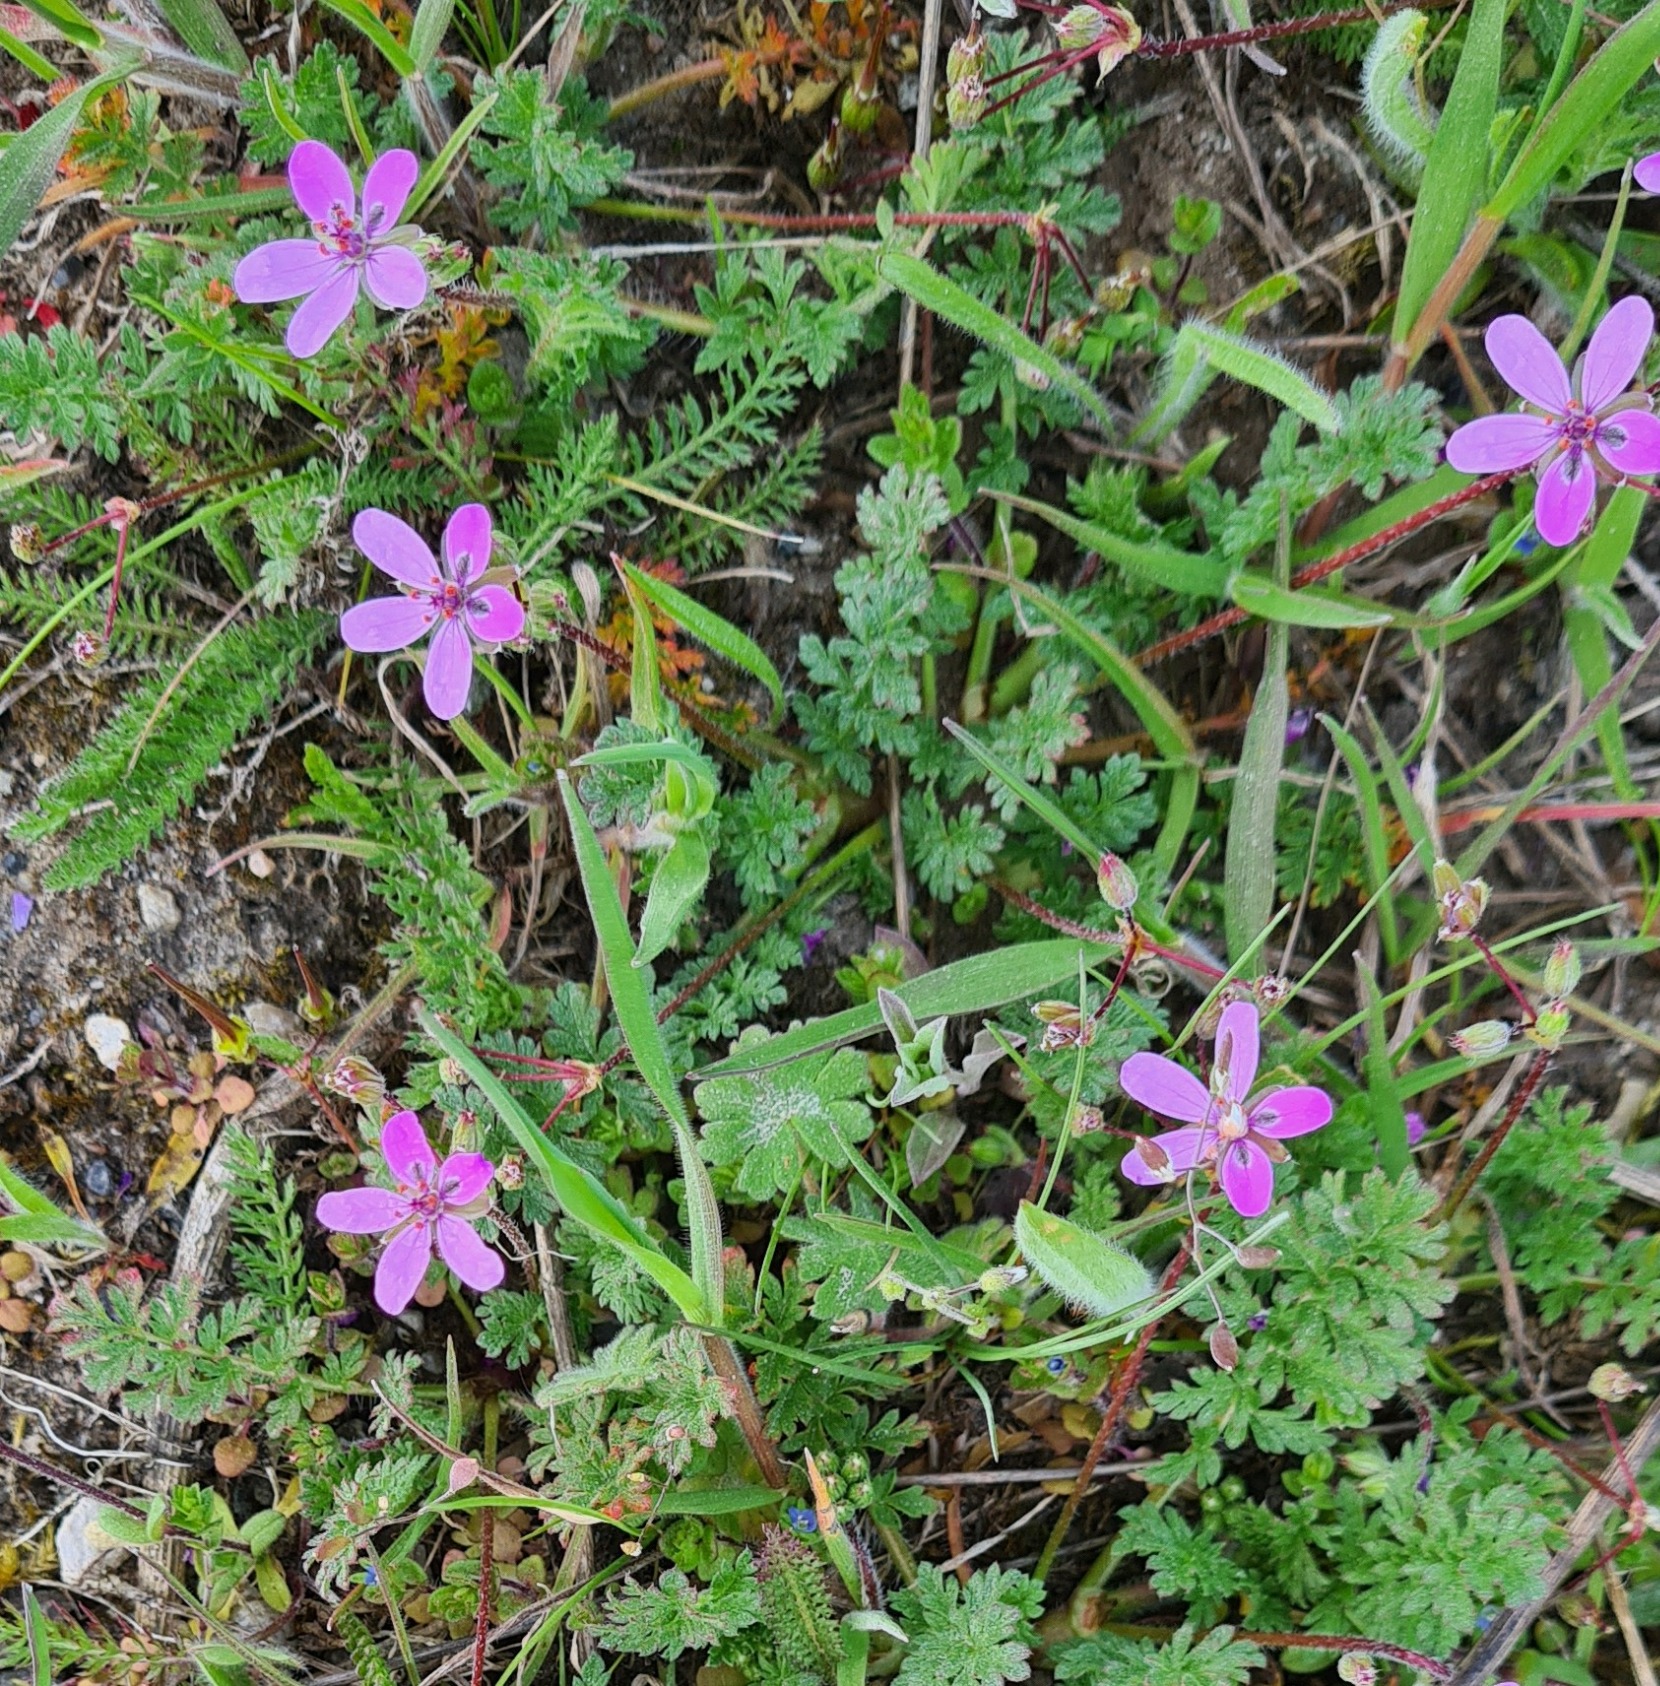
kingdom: Plantae
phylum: Tracheophyta
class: Magnoliopsida
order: Geraniales
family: Geraniaceae
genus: Erodium
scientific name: Erodium cicutarium
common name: Hejrenæb
